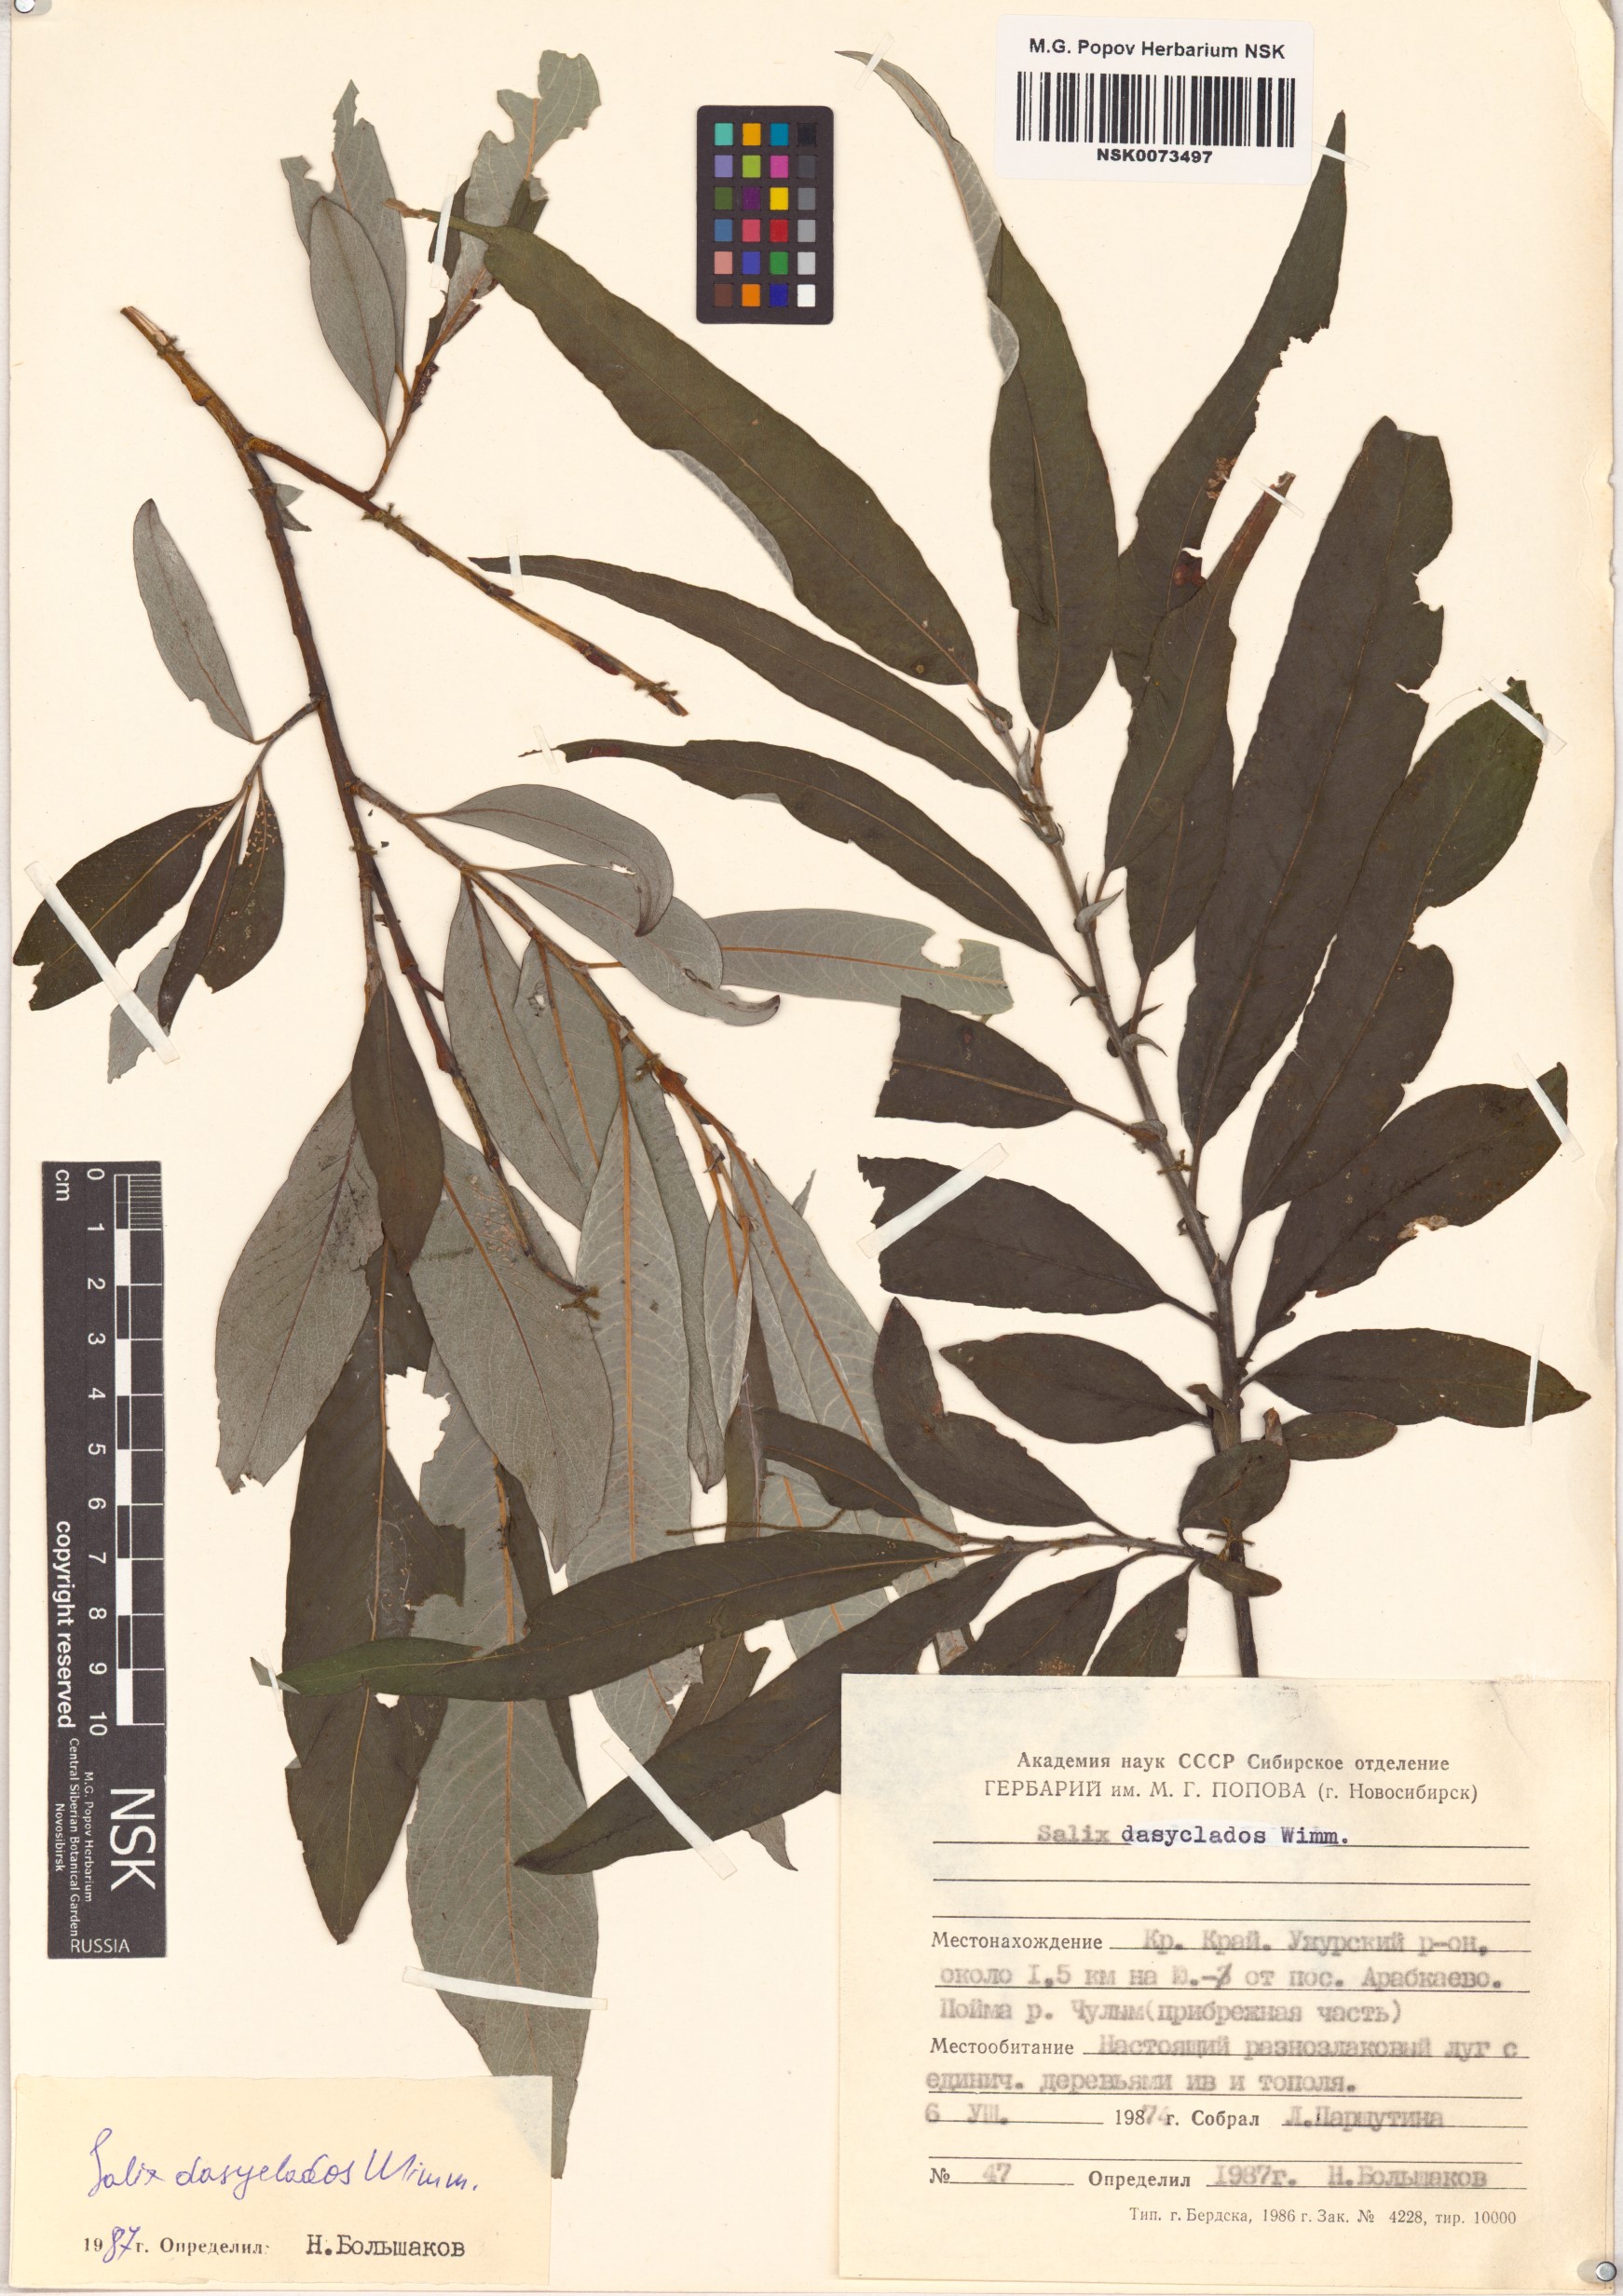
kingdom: Plantae
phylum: Tracheophyta
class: Magnoliopsida
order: Malpighiales
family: Salicaceae
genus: Salix
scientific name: Salix gmelinii
